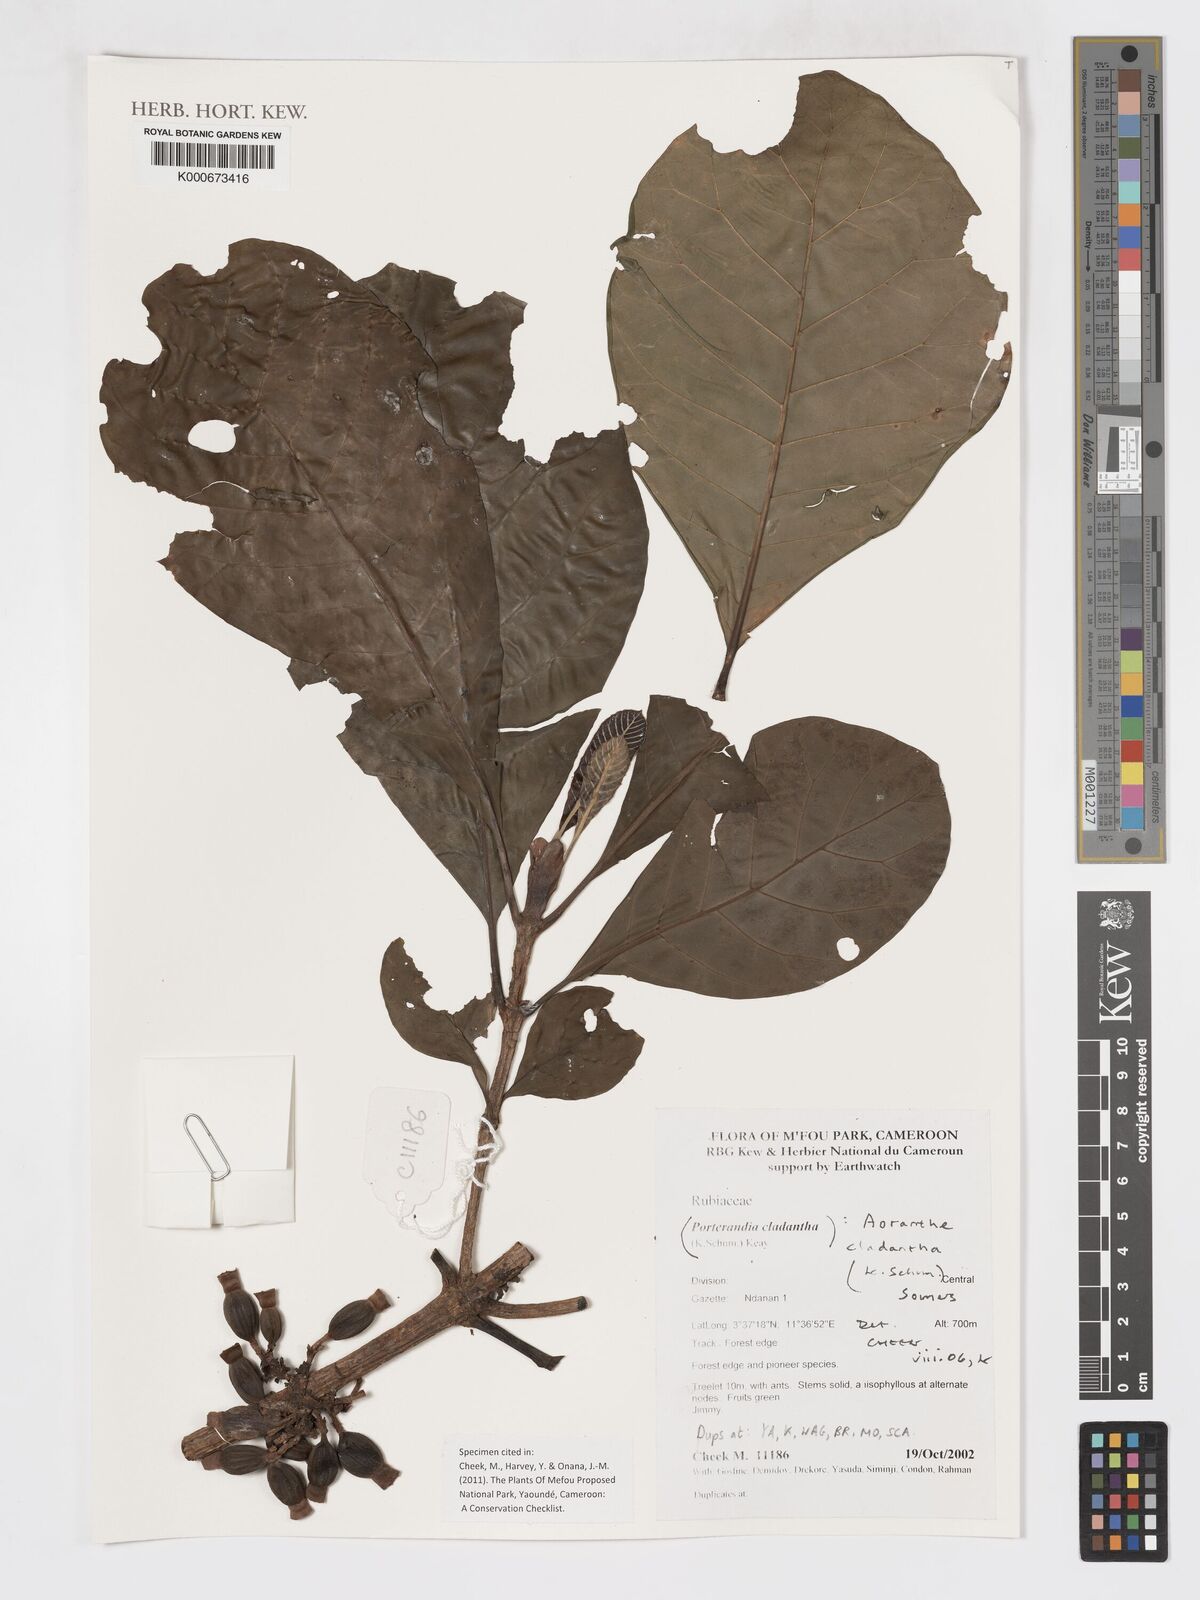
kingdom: Plantae
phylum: Tracheophyta
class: Magnoliopsida
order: Gentianales
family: Rubiaceae
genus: Aoranthe
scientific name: Aoranthe cladantha
